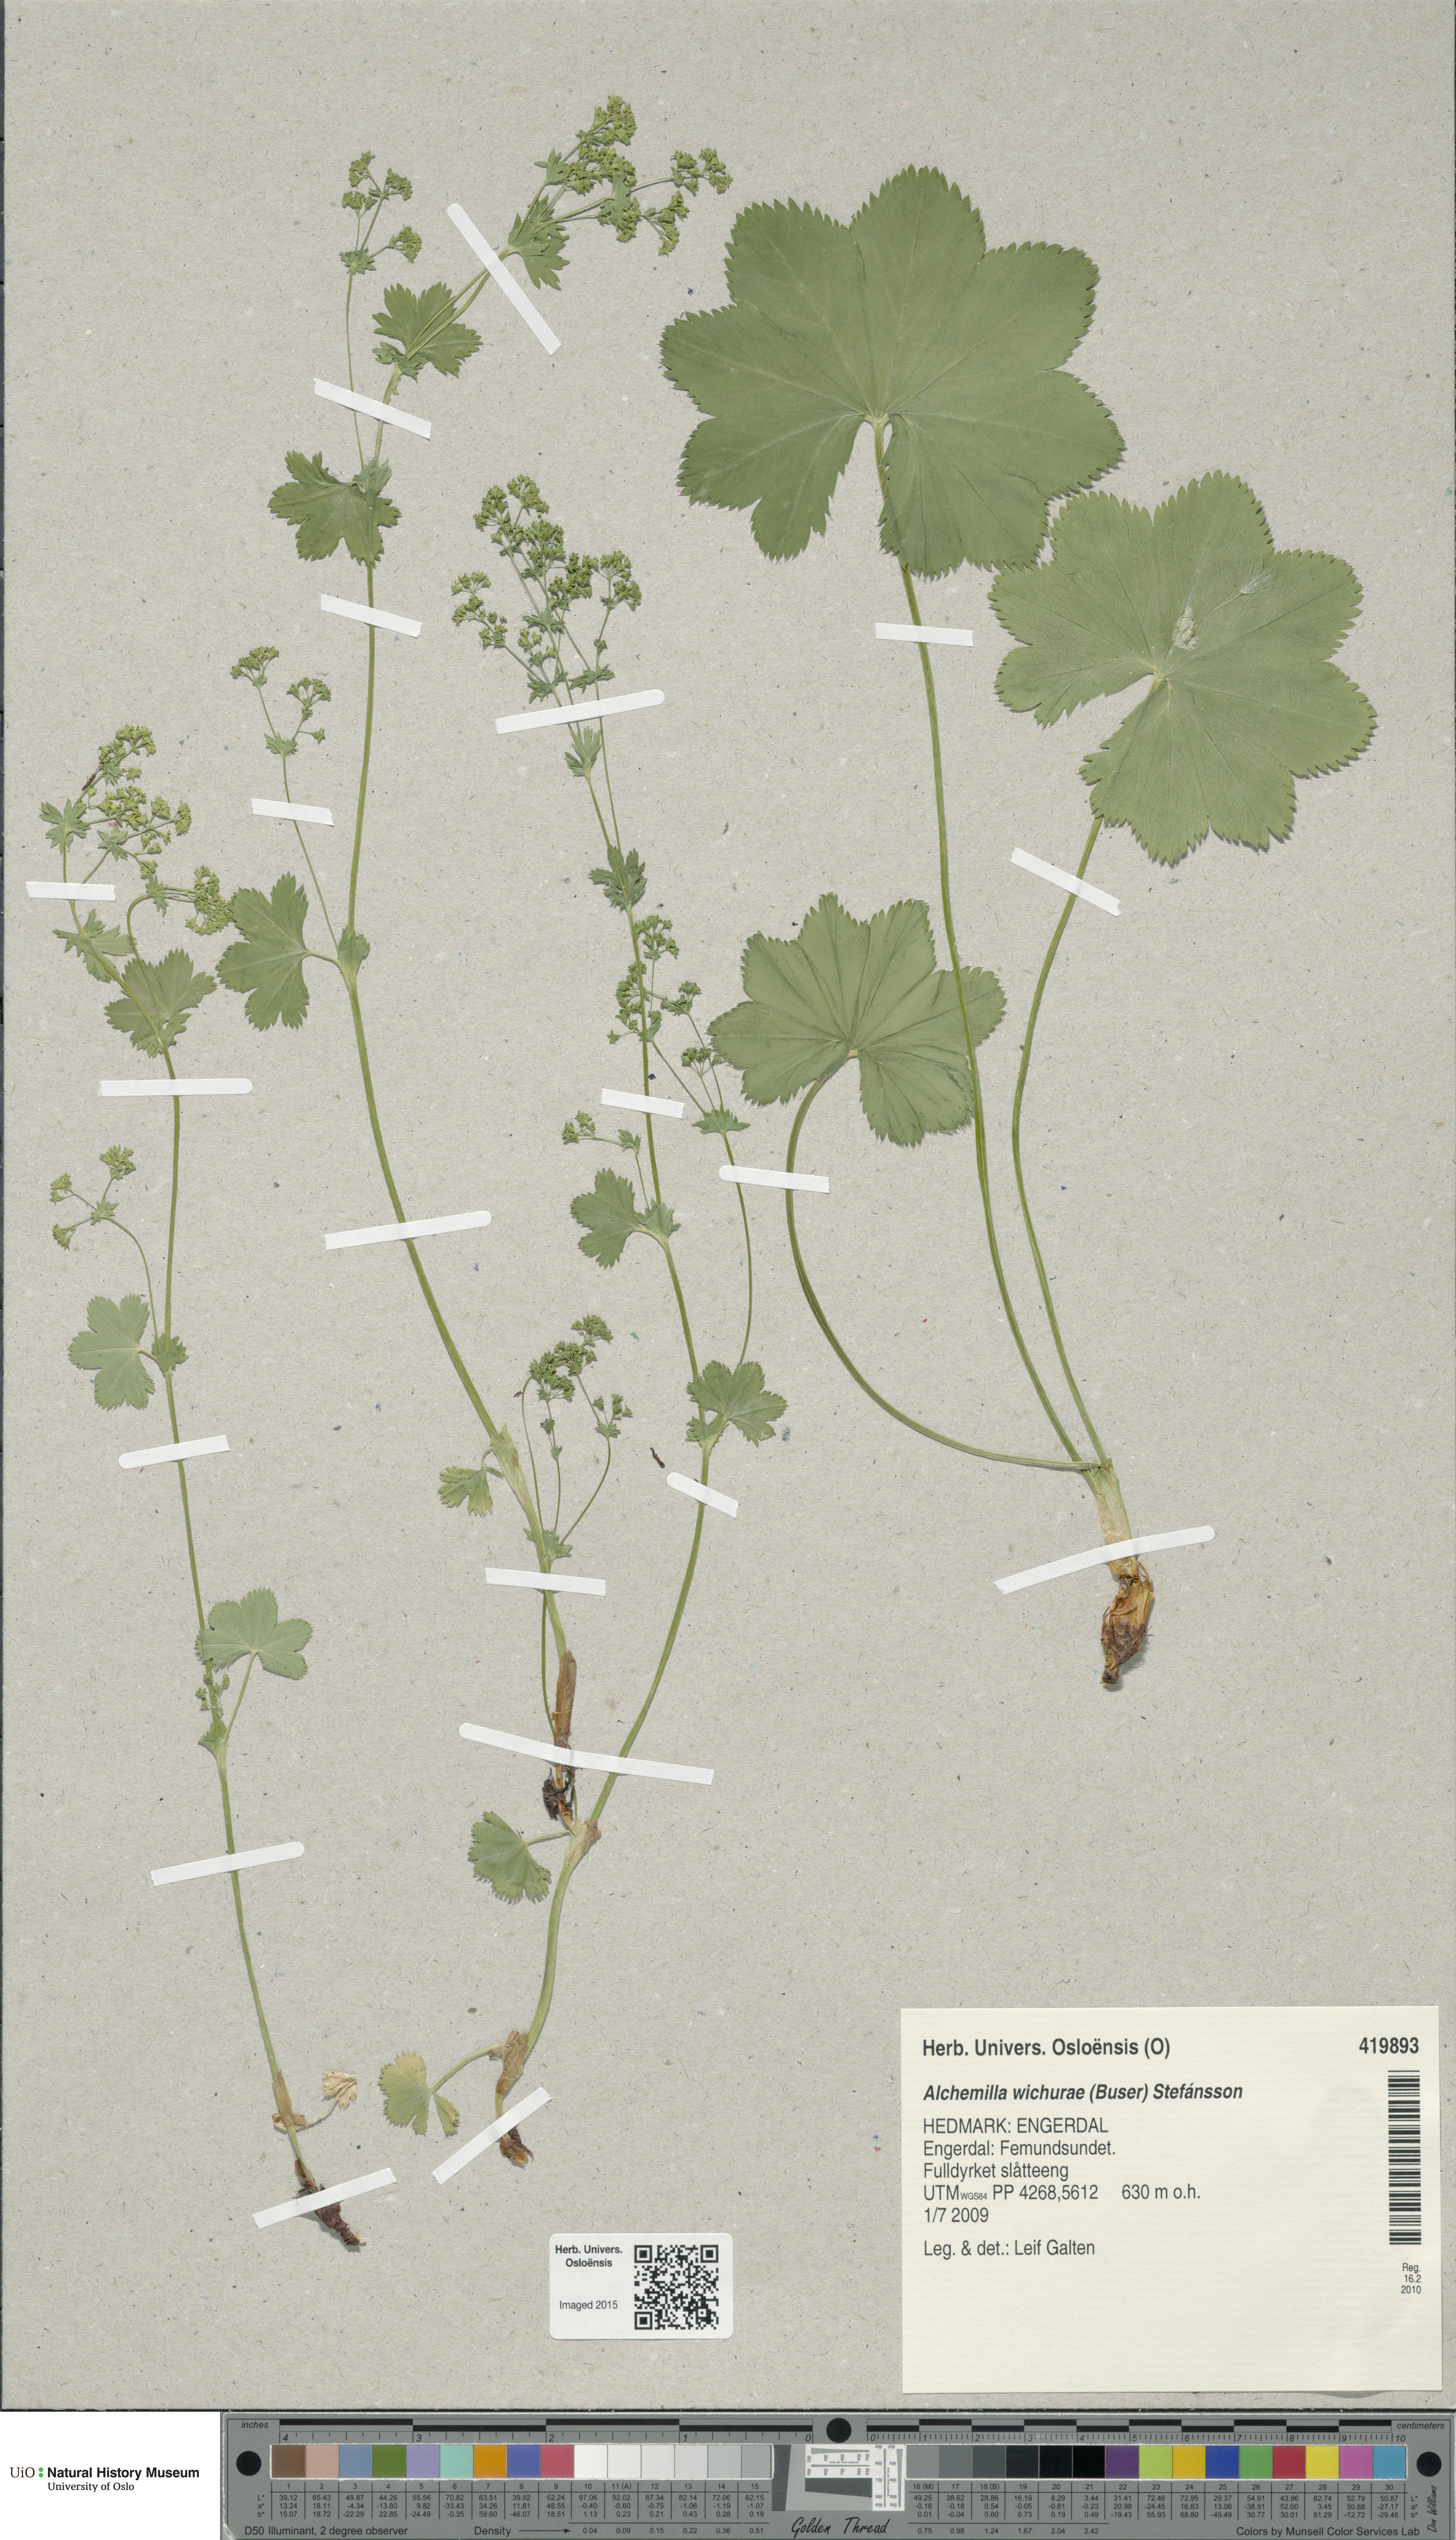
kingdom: Plantae
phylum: Tracheophyta
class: Magnoliopsida
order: Rosales
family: Rosaceae
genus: Alchemilla
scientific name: Alchemilla wichurae
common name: Rock lady's mantle
